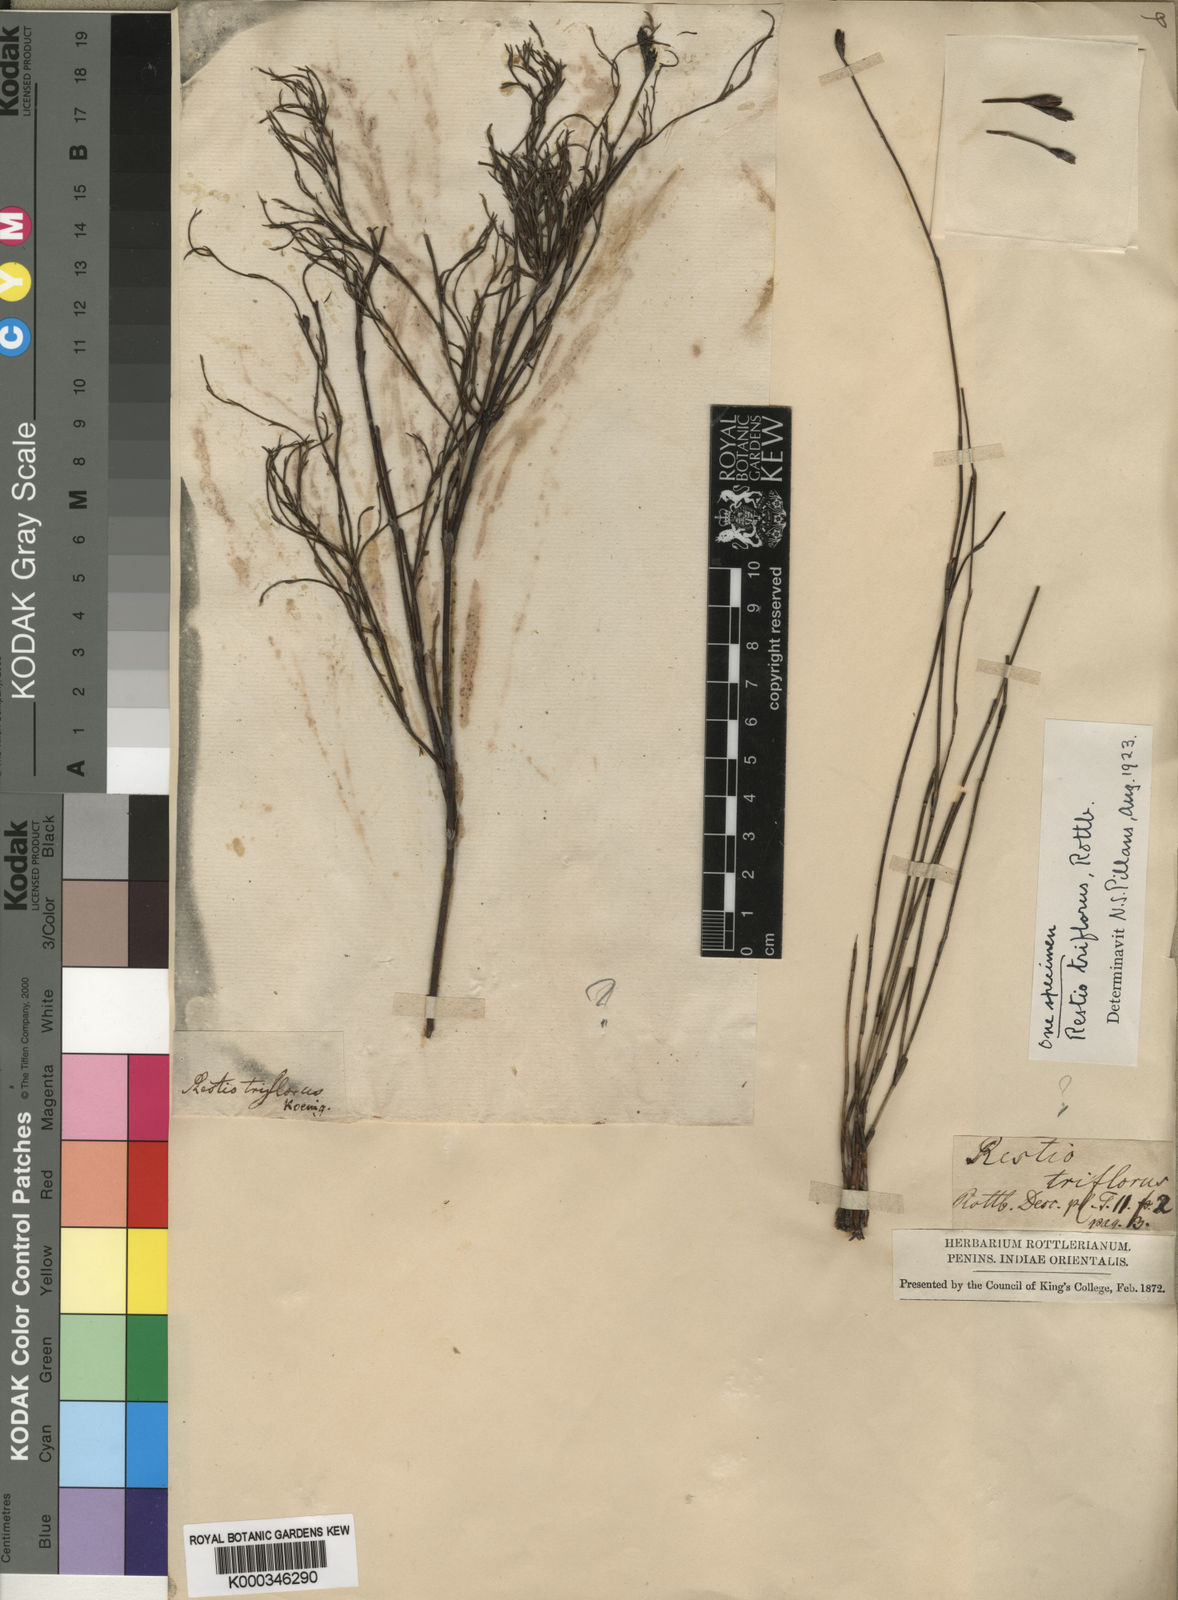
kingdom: Plantae
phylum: Tracheophyta
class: Liliopsida
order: Poales
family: Restionaceae
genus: Restio
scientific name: Restio triflorus
